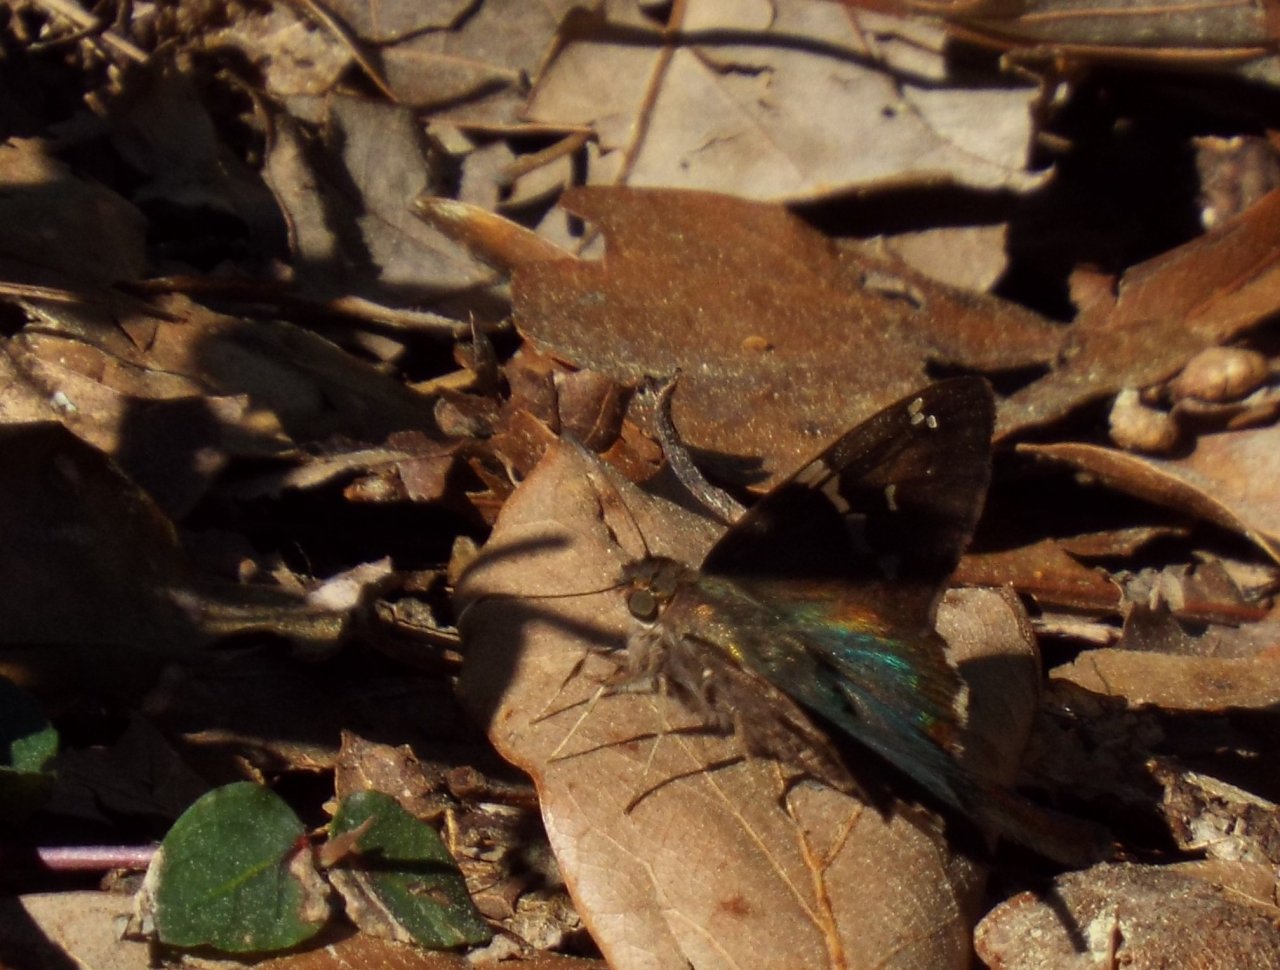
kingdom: Animalia
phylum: Arthropoda
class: Insecta
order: Lepidoptera
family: Hesperiidae
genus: Urbanus
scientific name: Urbanus proteus
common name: Long-tailed Skipper
